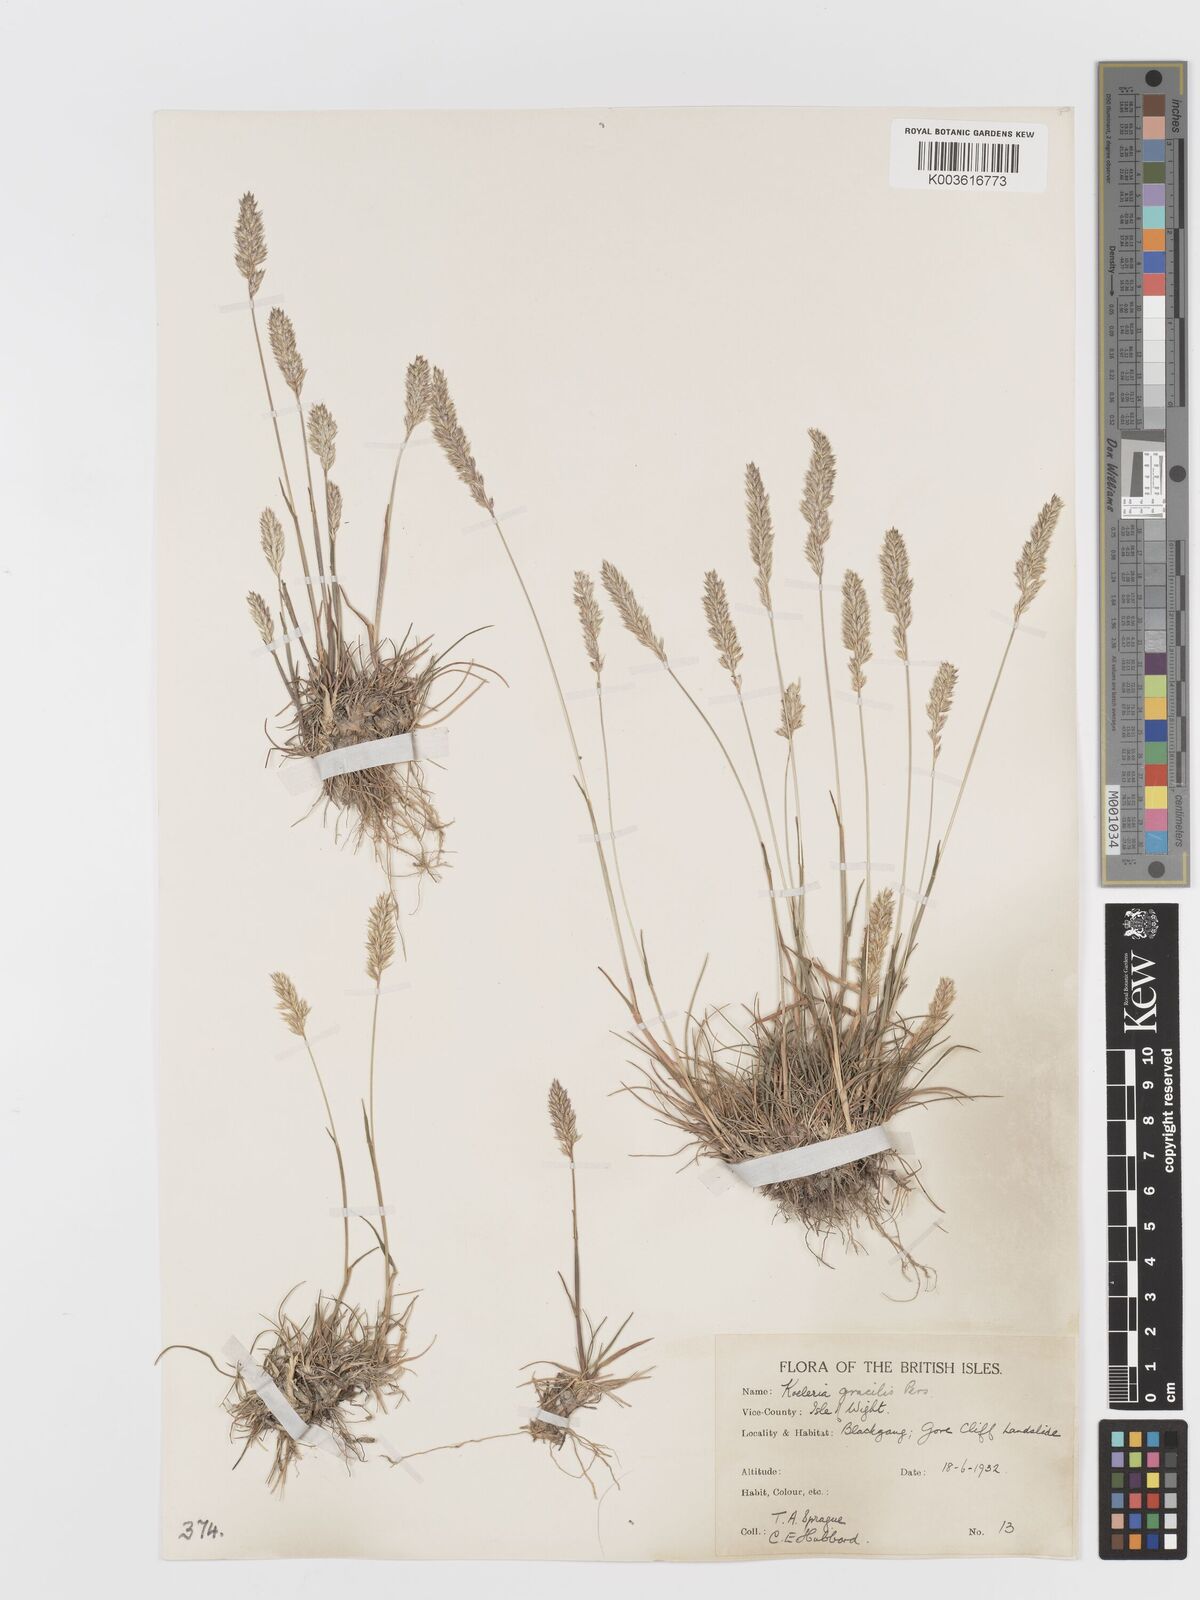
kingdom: Plantae
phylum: Tracheophyta
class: Liliopsida
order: Poales
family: Poaceae
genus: Koeleria
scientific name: Koeleria macrantha
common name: Crested hair-grass
